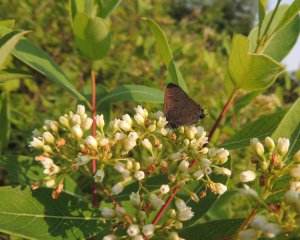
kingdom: Animalia
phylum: Arthropoda
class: Insecta
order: Lepidoptera
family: Lycaenidae
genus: Satyrium
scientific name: Satyrium calanus
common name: Banded Hairstreak
